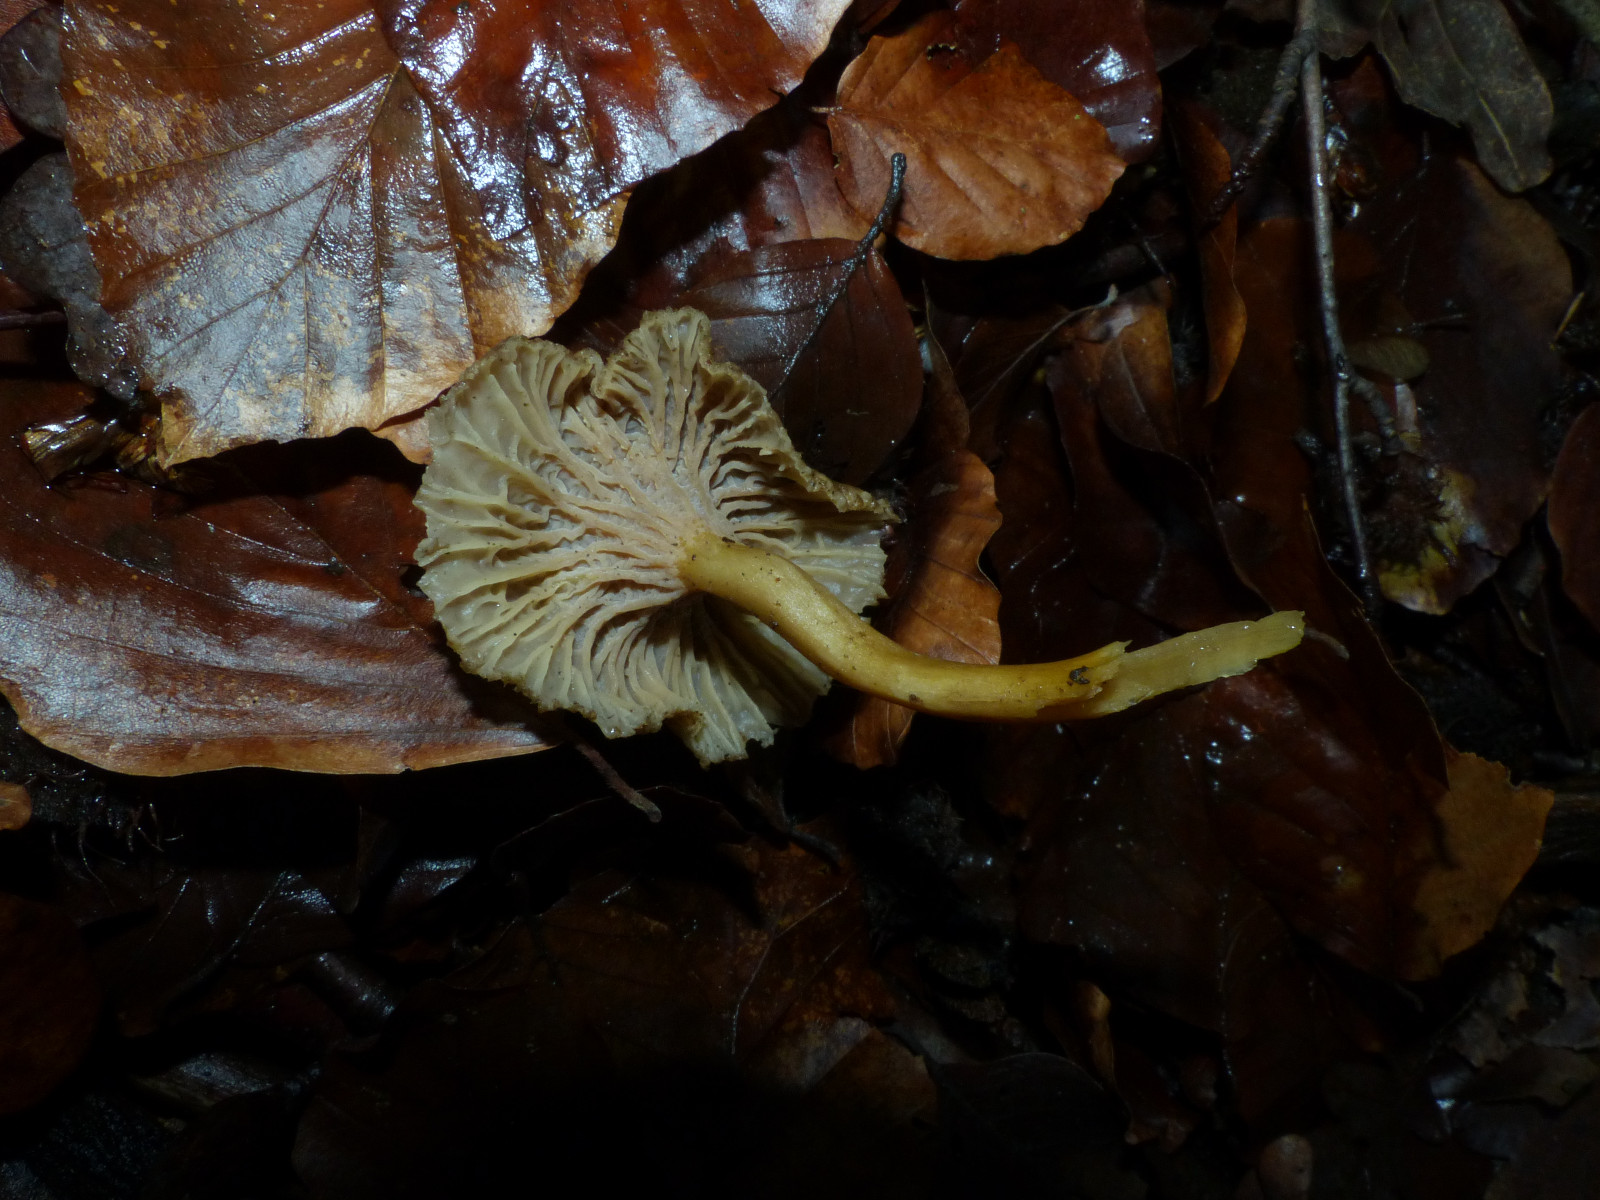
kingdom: Fungi
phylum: Basidiomycota
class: Agaricomycetes
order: Cantharellales
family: Hydnaceae
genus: Craterellus
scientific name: Craterellus tubaeformis
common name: tragt-kantarel
